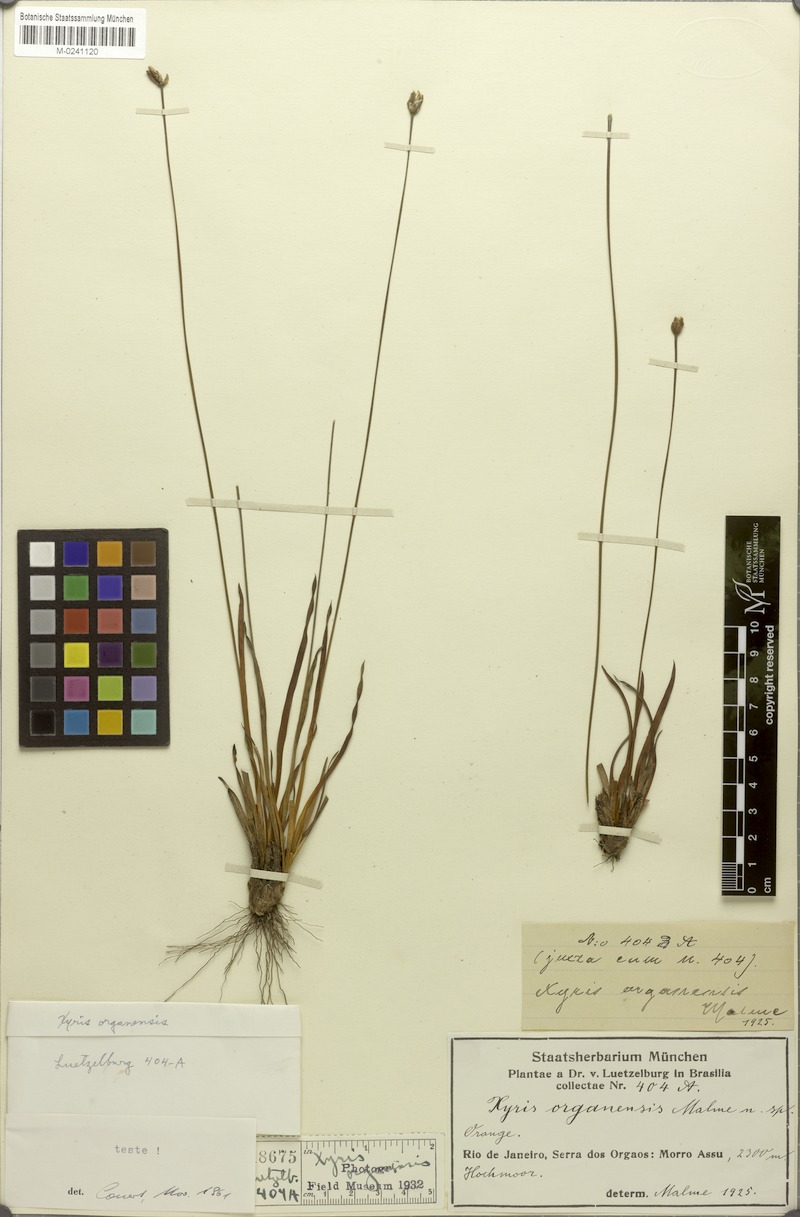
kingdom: Plantae
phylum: Tracheophyta
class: Liliopsida
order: Poales
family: Xyridaceae
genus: Xyris
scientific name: Xyris organensis
